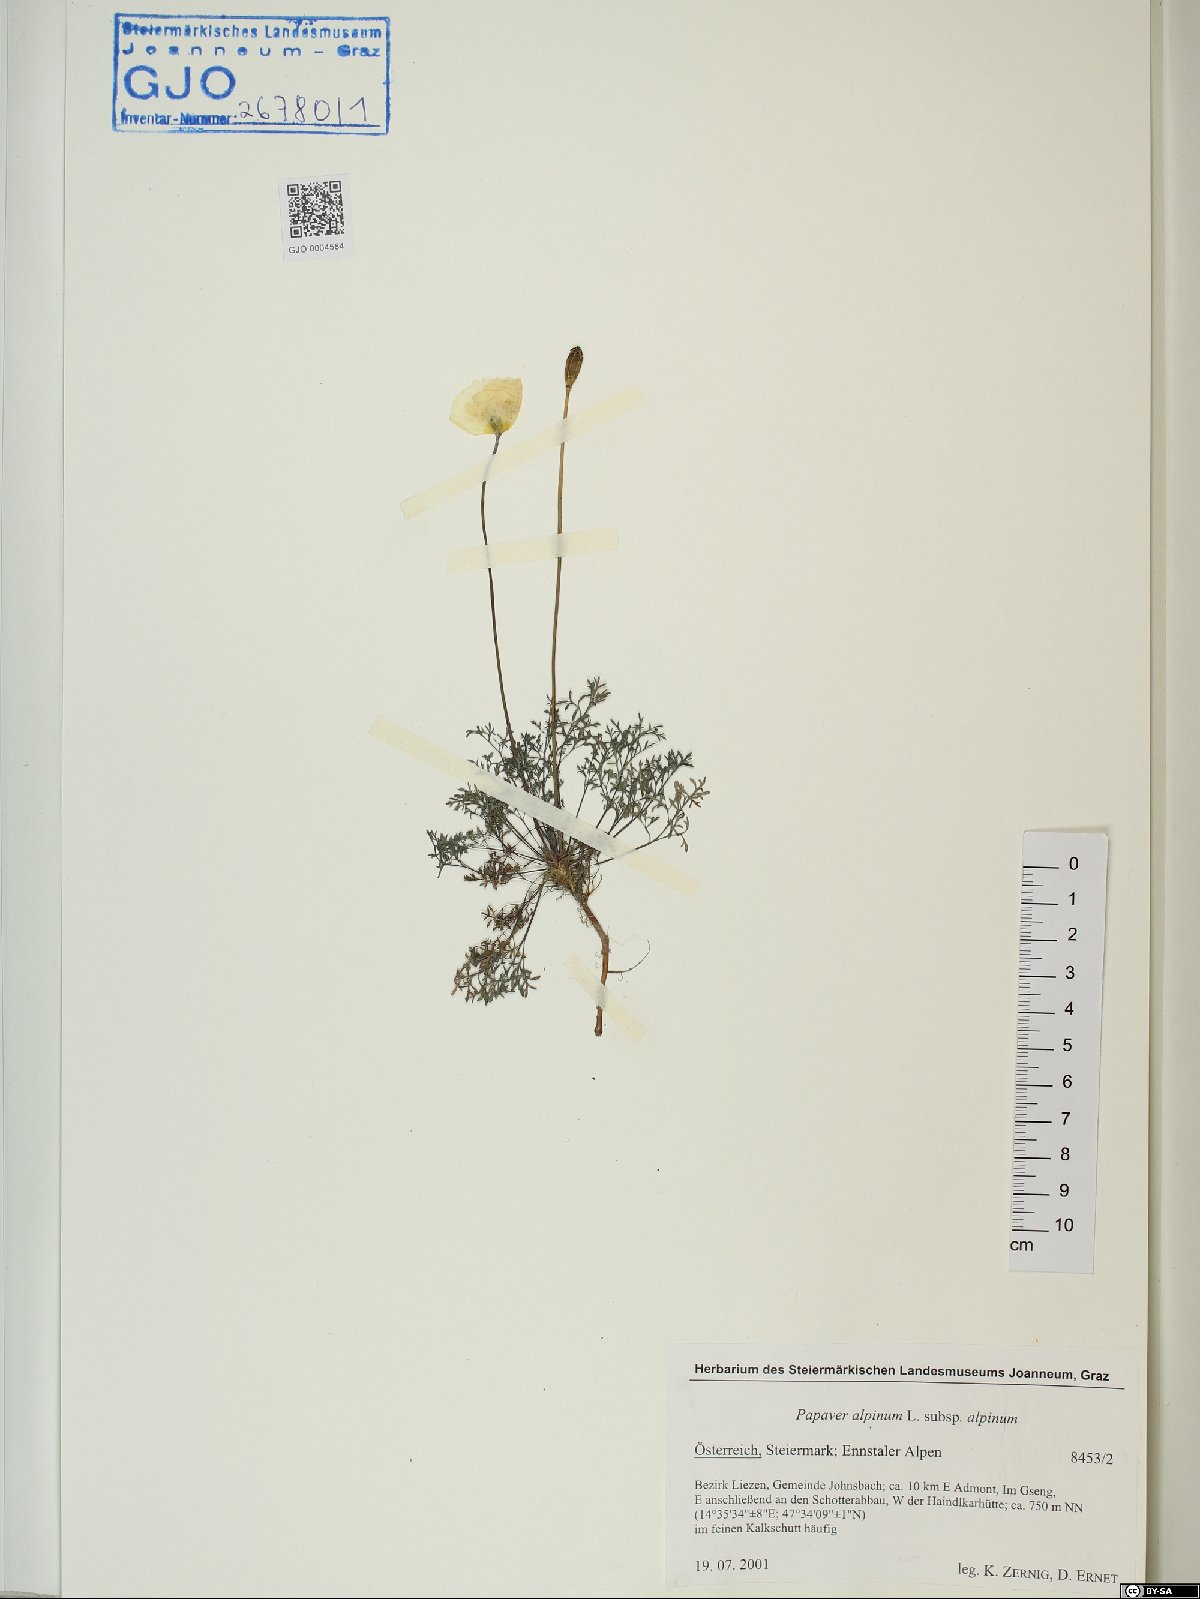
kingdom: Plantae
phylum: Tracheophyta
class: Magnoliopsida
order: Ranunculales
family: Papaveraceae
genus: Papaver
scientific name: Papaver alpinum
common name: Austrian poppy
